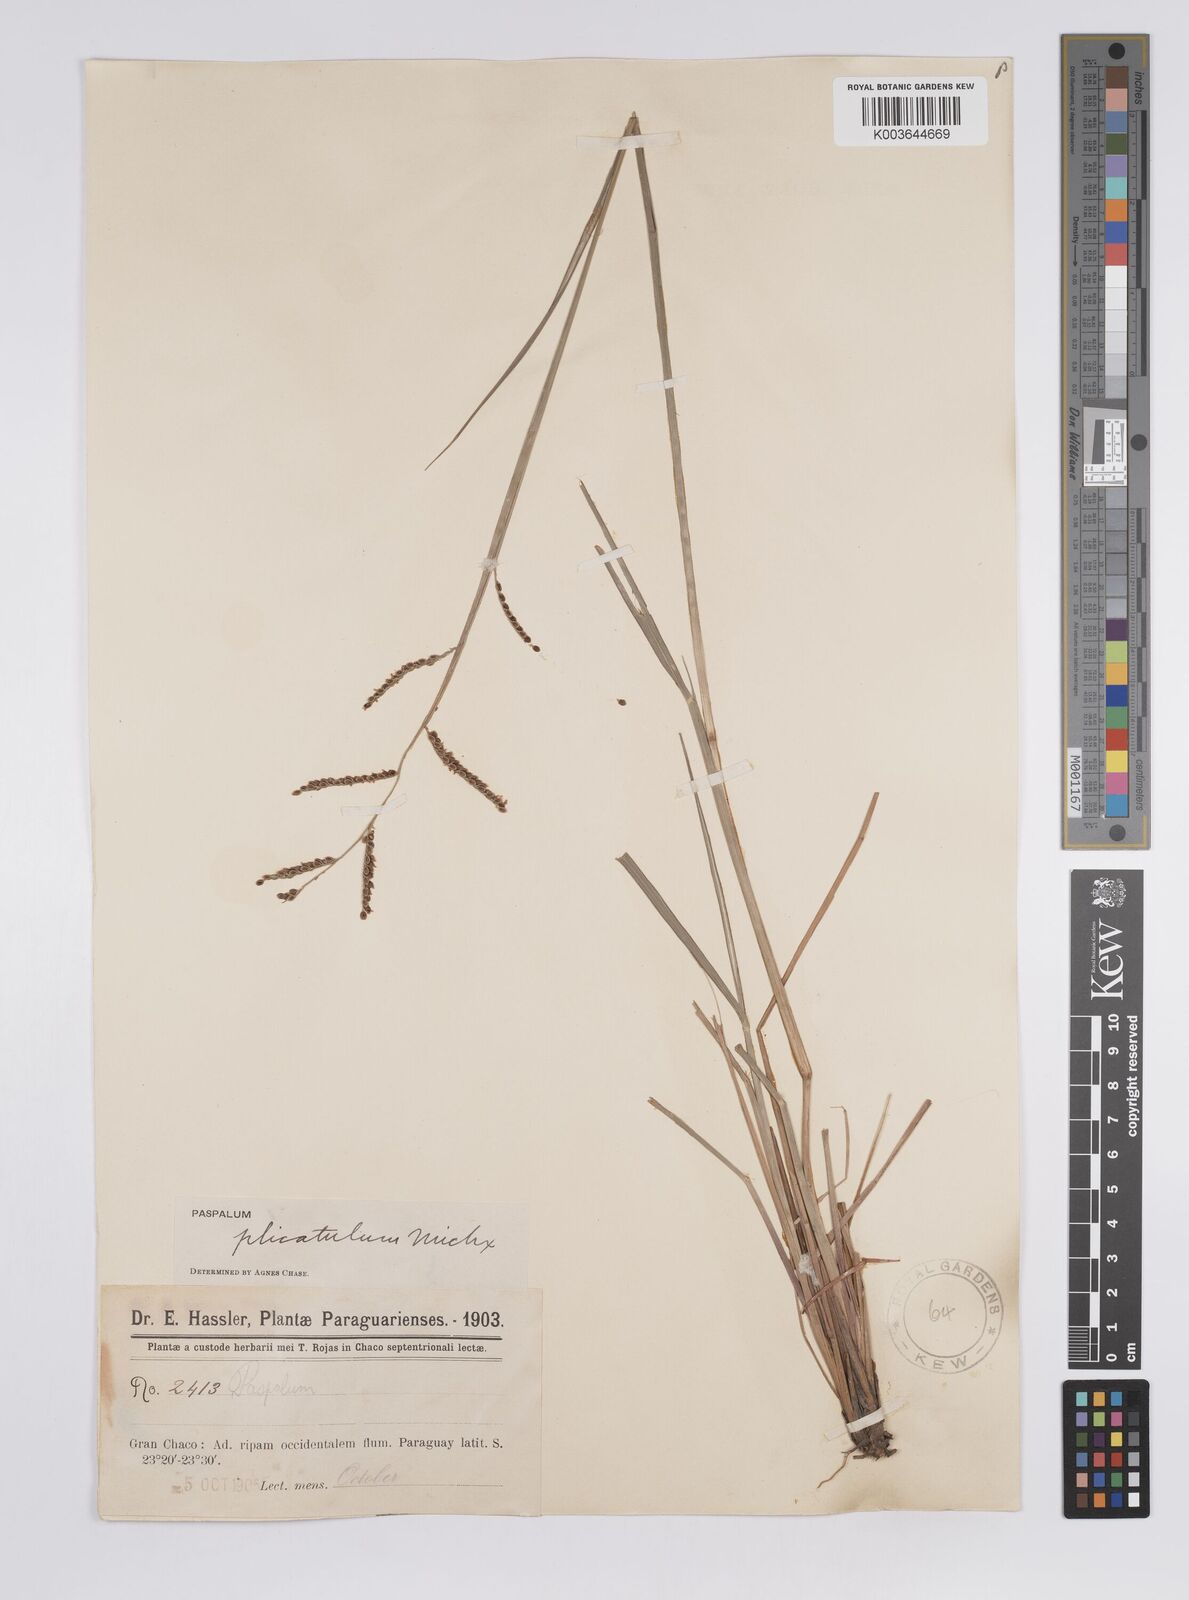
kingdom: Plantae
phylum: Tracheophyta
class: Liliopsida
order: Poales
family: Poaceae
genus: Paspalum
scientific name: Paspalum plicatulum
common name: Top paspalum
